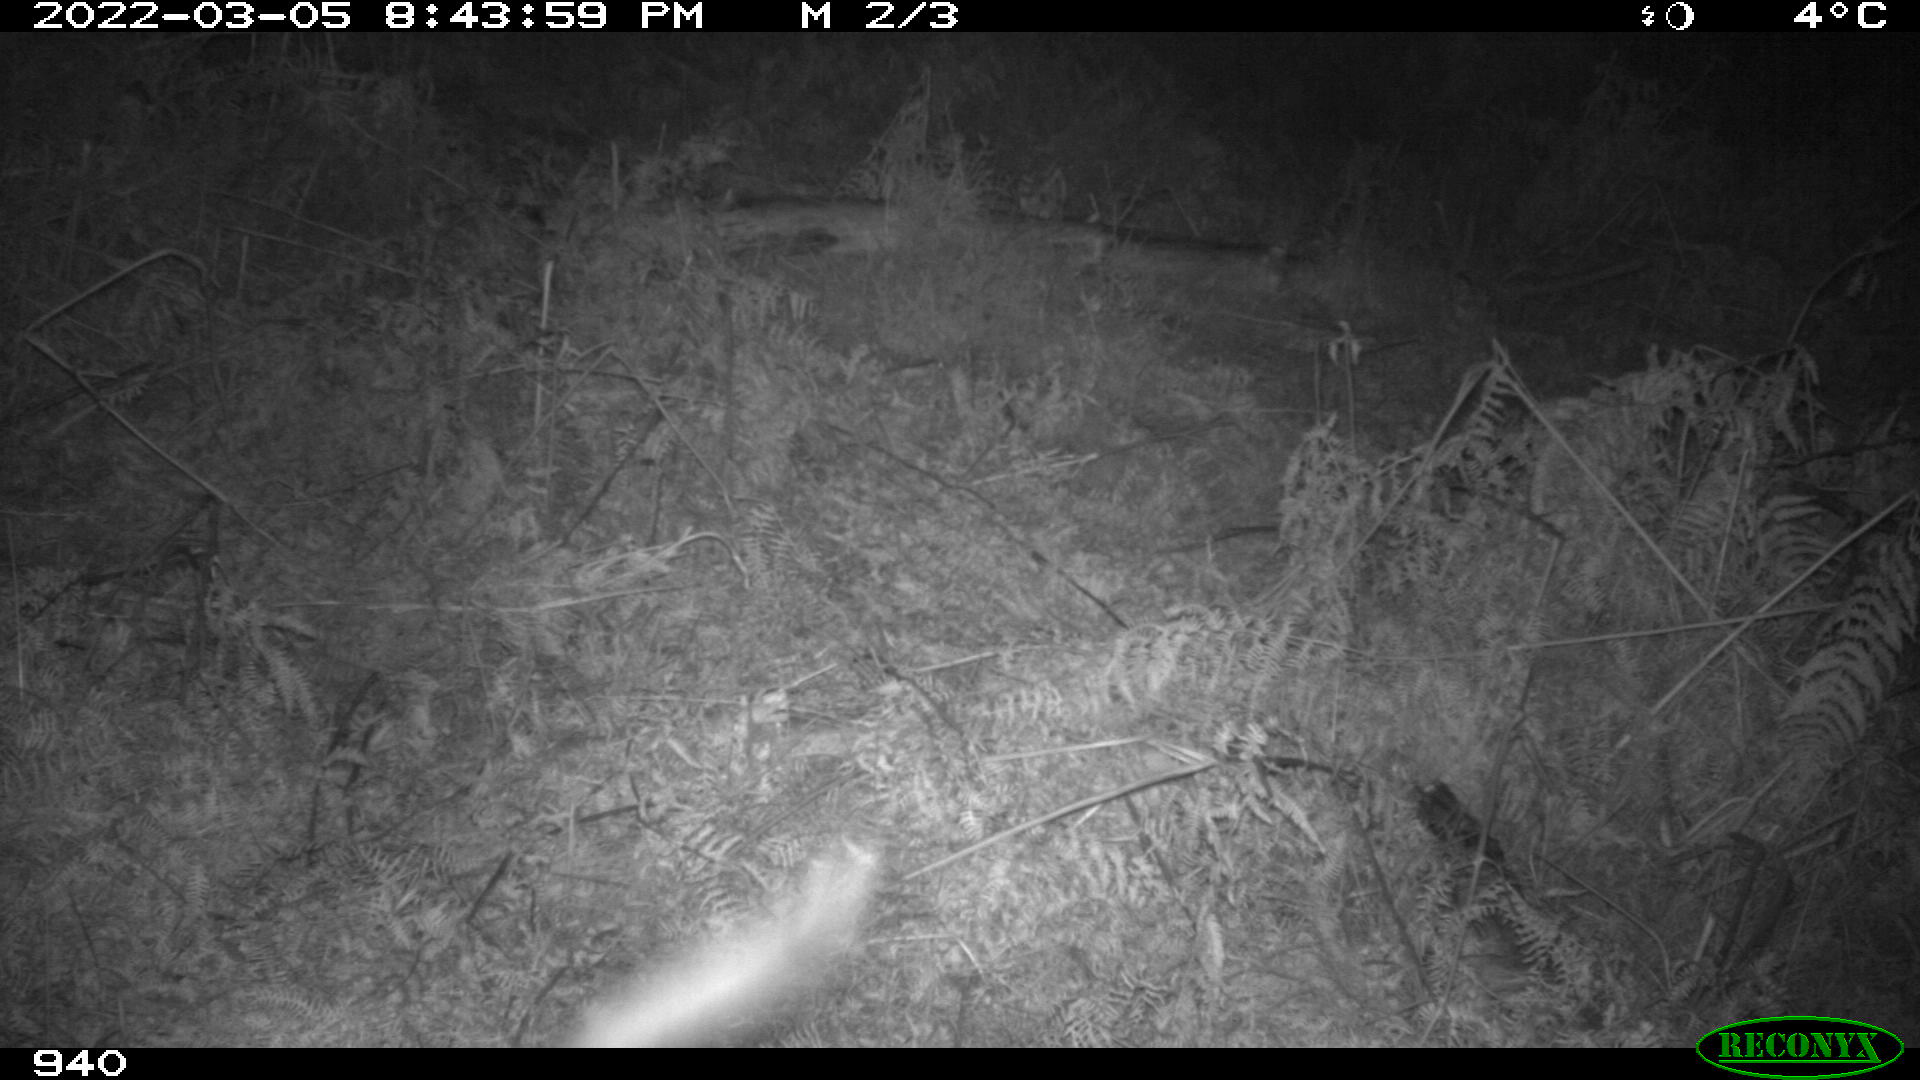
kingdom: Animalia
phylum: Chordata
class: Mammalia
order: Carnivora
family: Canidae
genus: Canis
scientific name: Canis lupus
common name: Gray wolf
